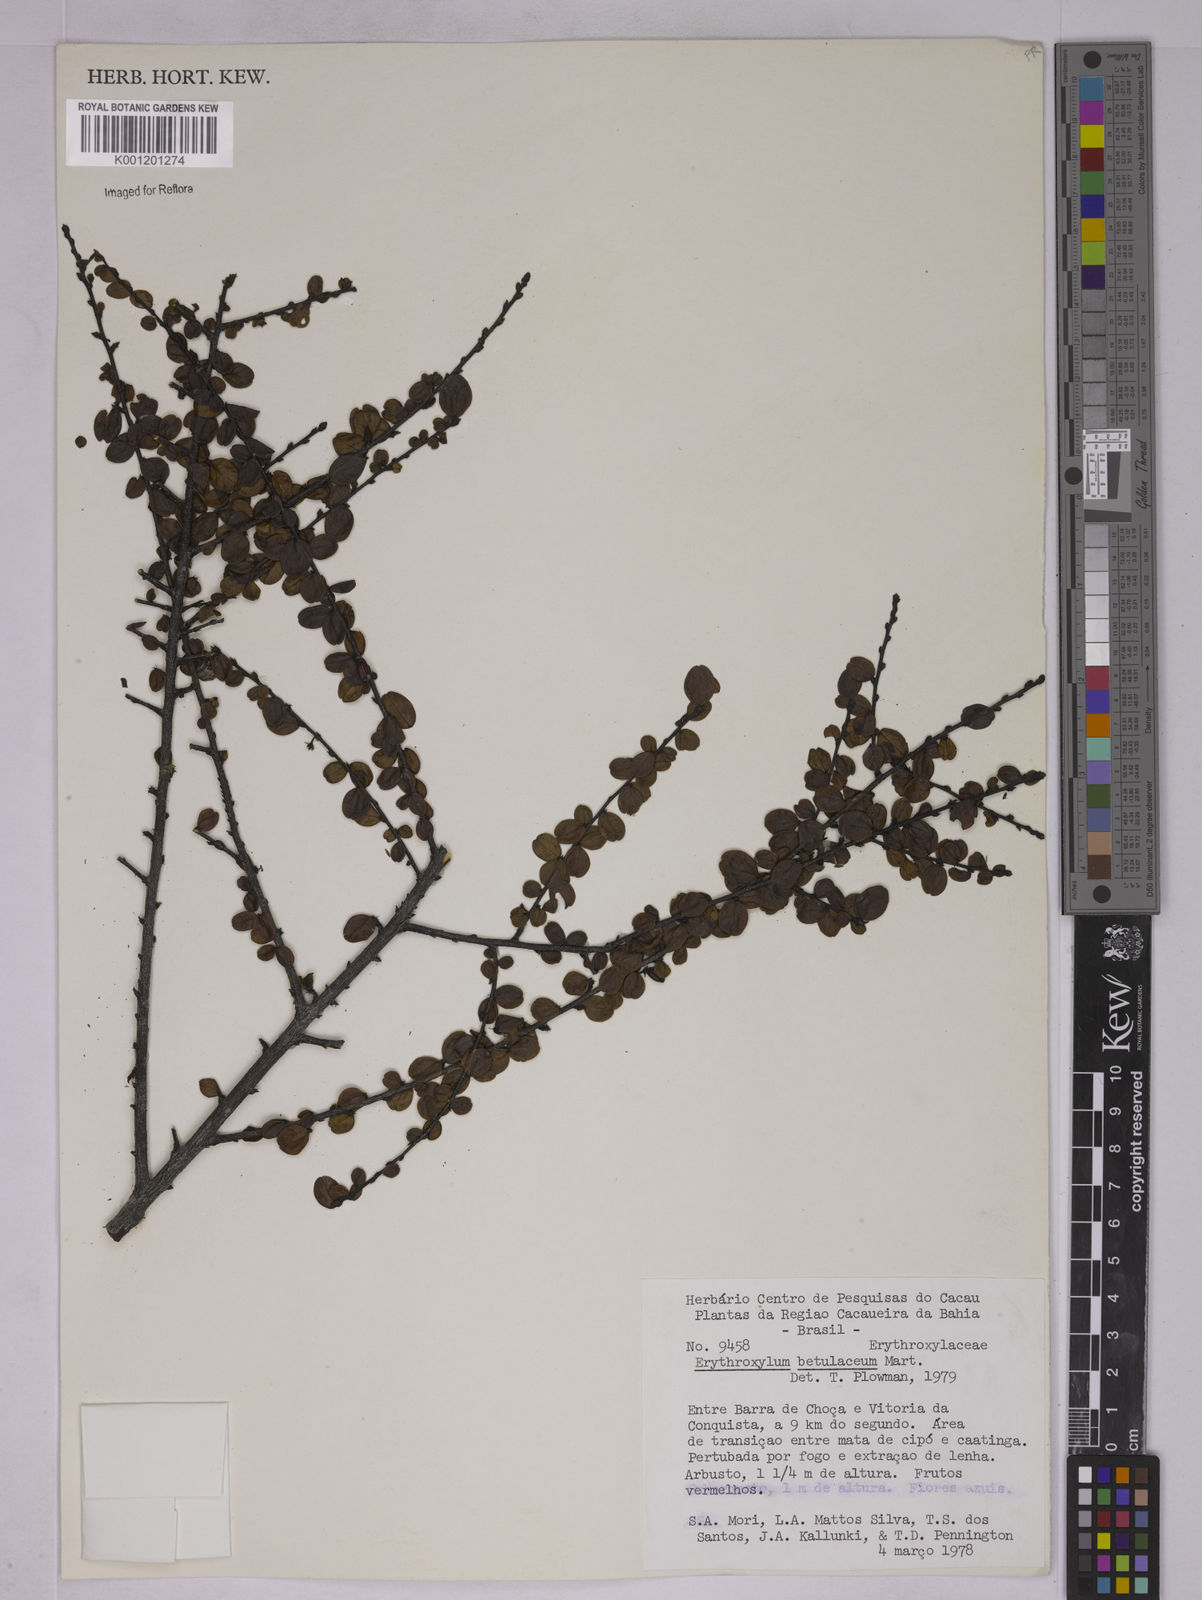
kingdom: Plantae
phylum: Tracheophyta
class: Magnoliopsida
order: Malpighiales
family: Erythroxylaceae
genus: Erythroxylum
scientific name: Erythroxylum betulaceum
